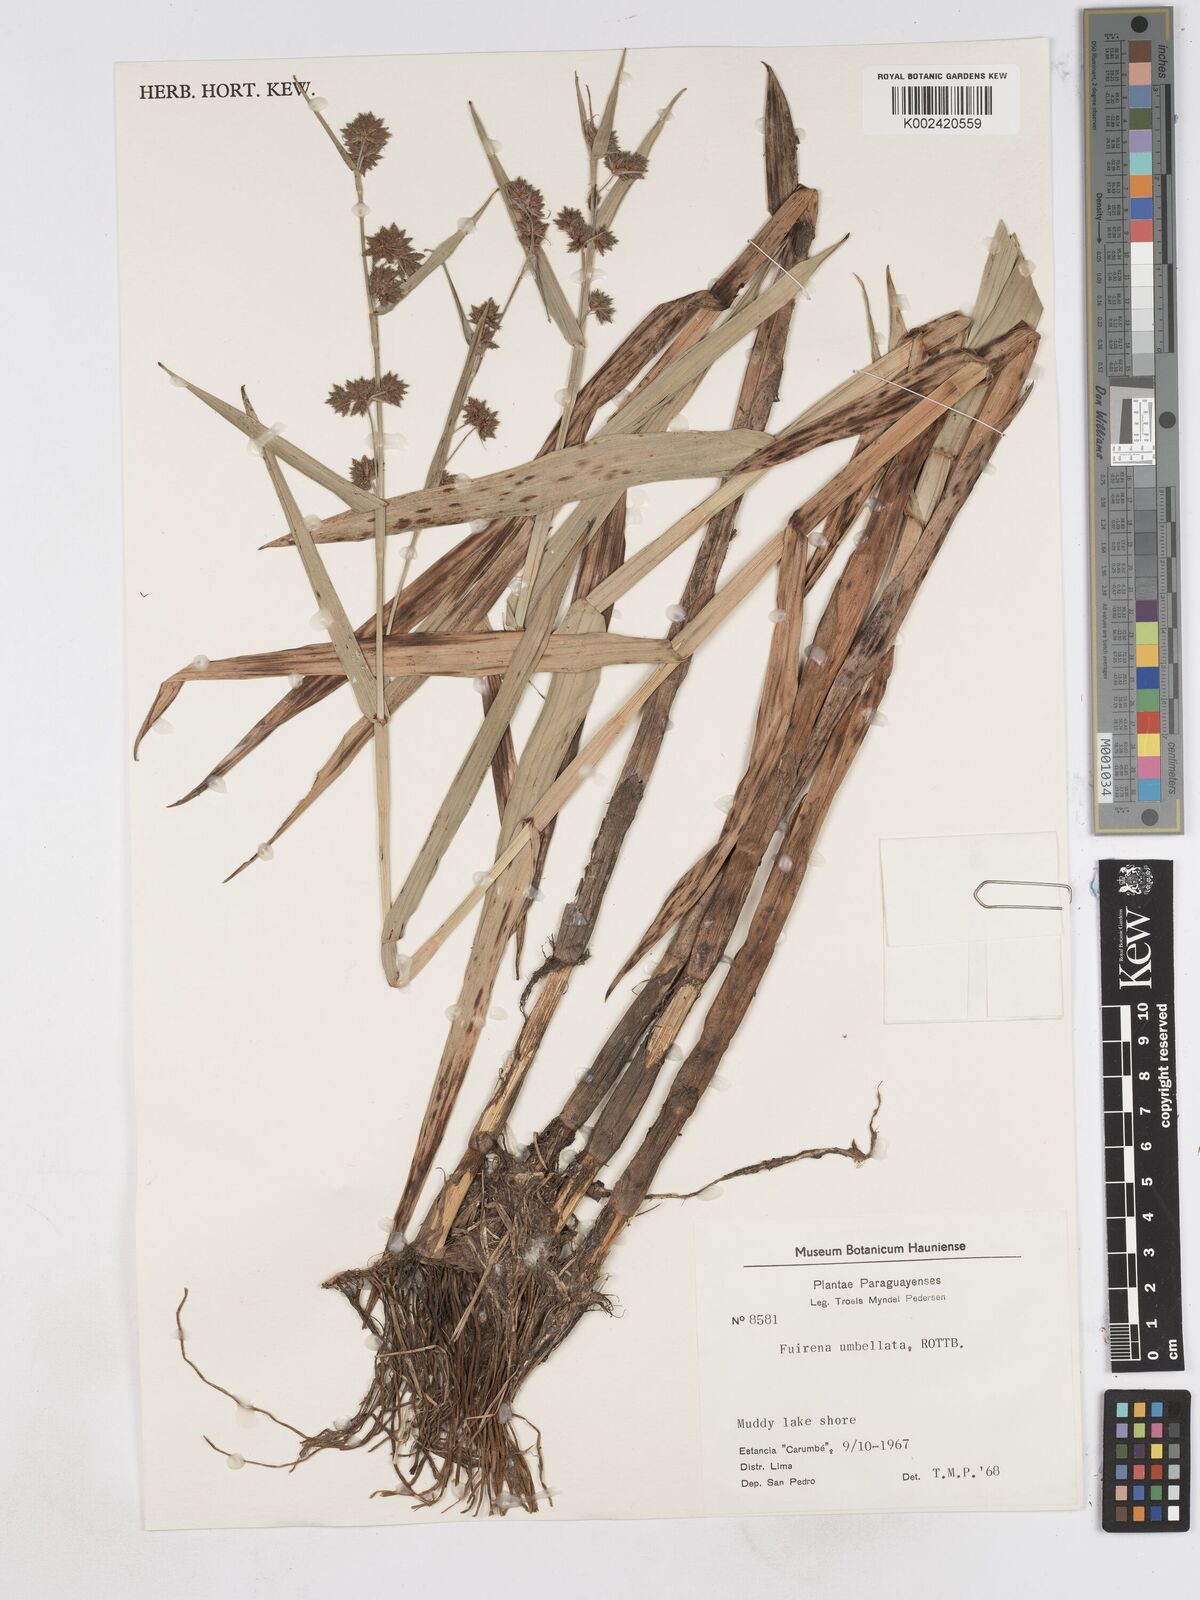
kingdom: Plantae
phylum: Tracheophyta
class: Liliopsida
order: Poales
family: Cyperaceae
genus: Fuirena
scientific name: Fuirena umbellata
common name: Yefen
